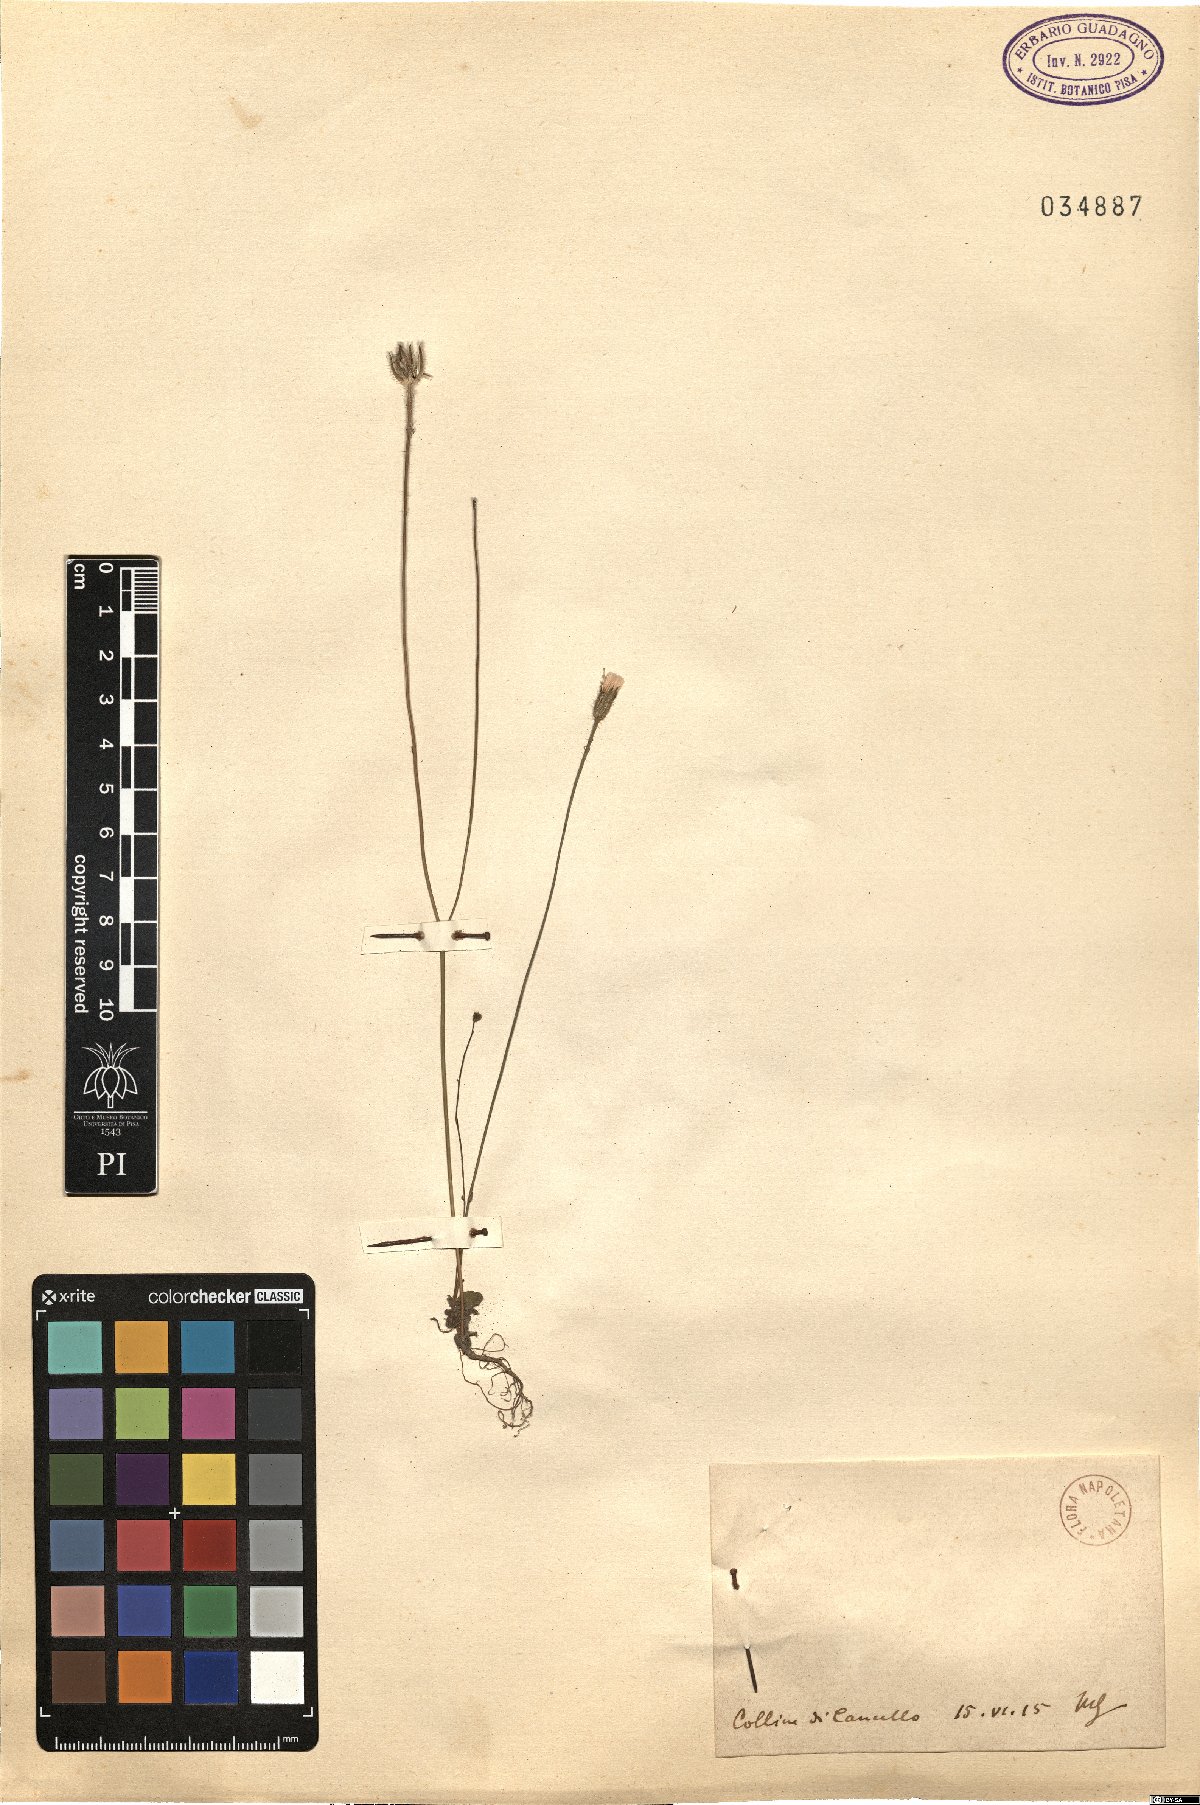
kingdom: Plantae
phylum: Tracheophyta
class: Magnoliopsida
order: Asterales
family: Asteraceae
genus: Hypochaeris
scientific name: Hypochaeris
